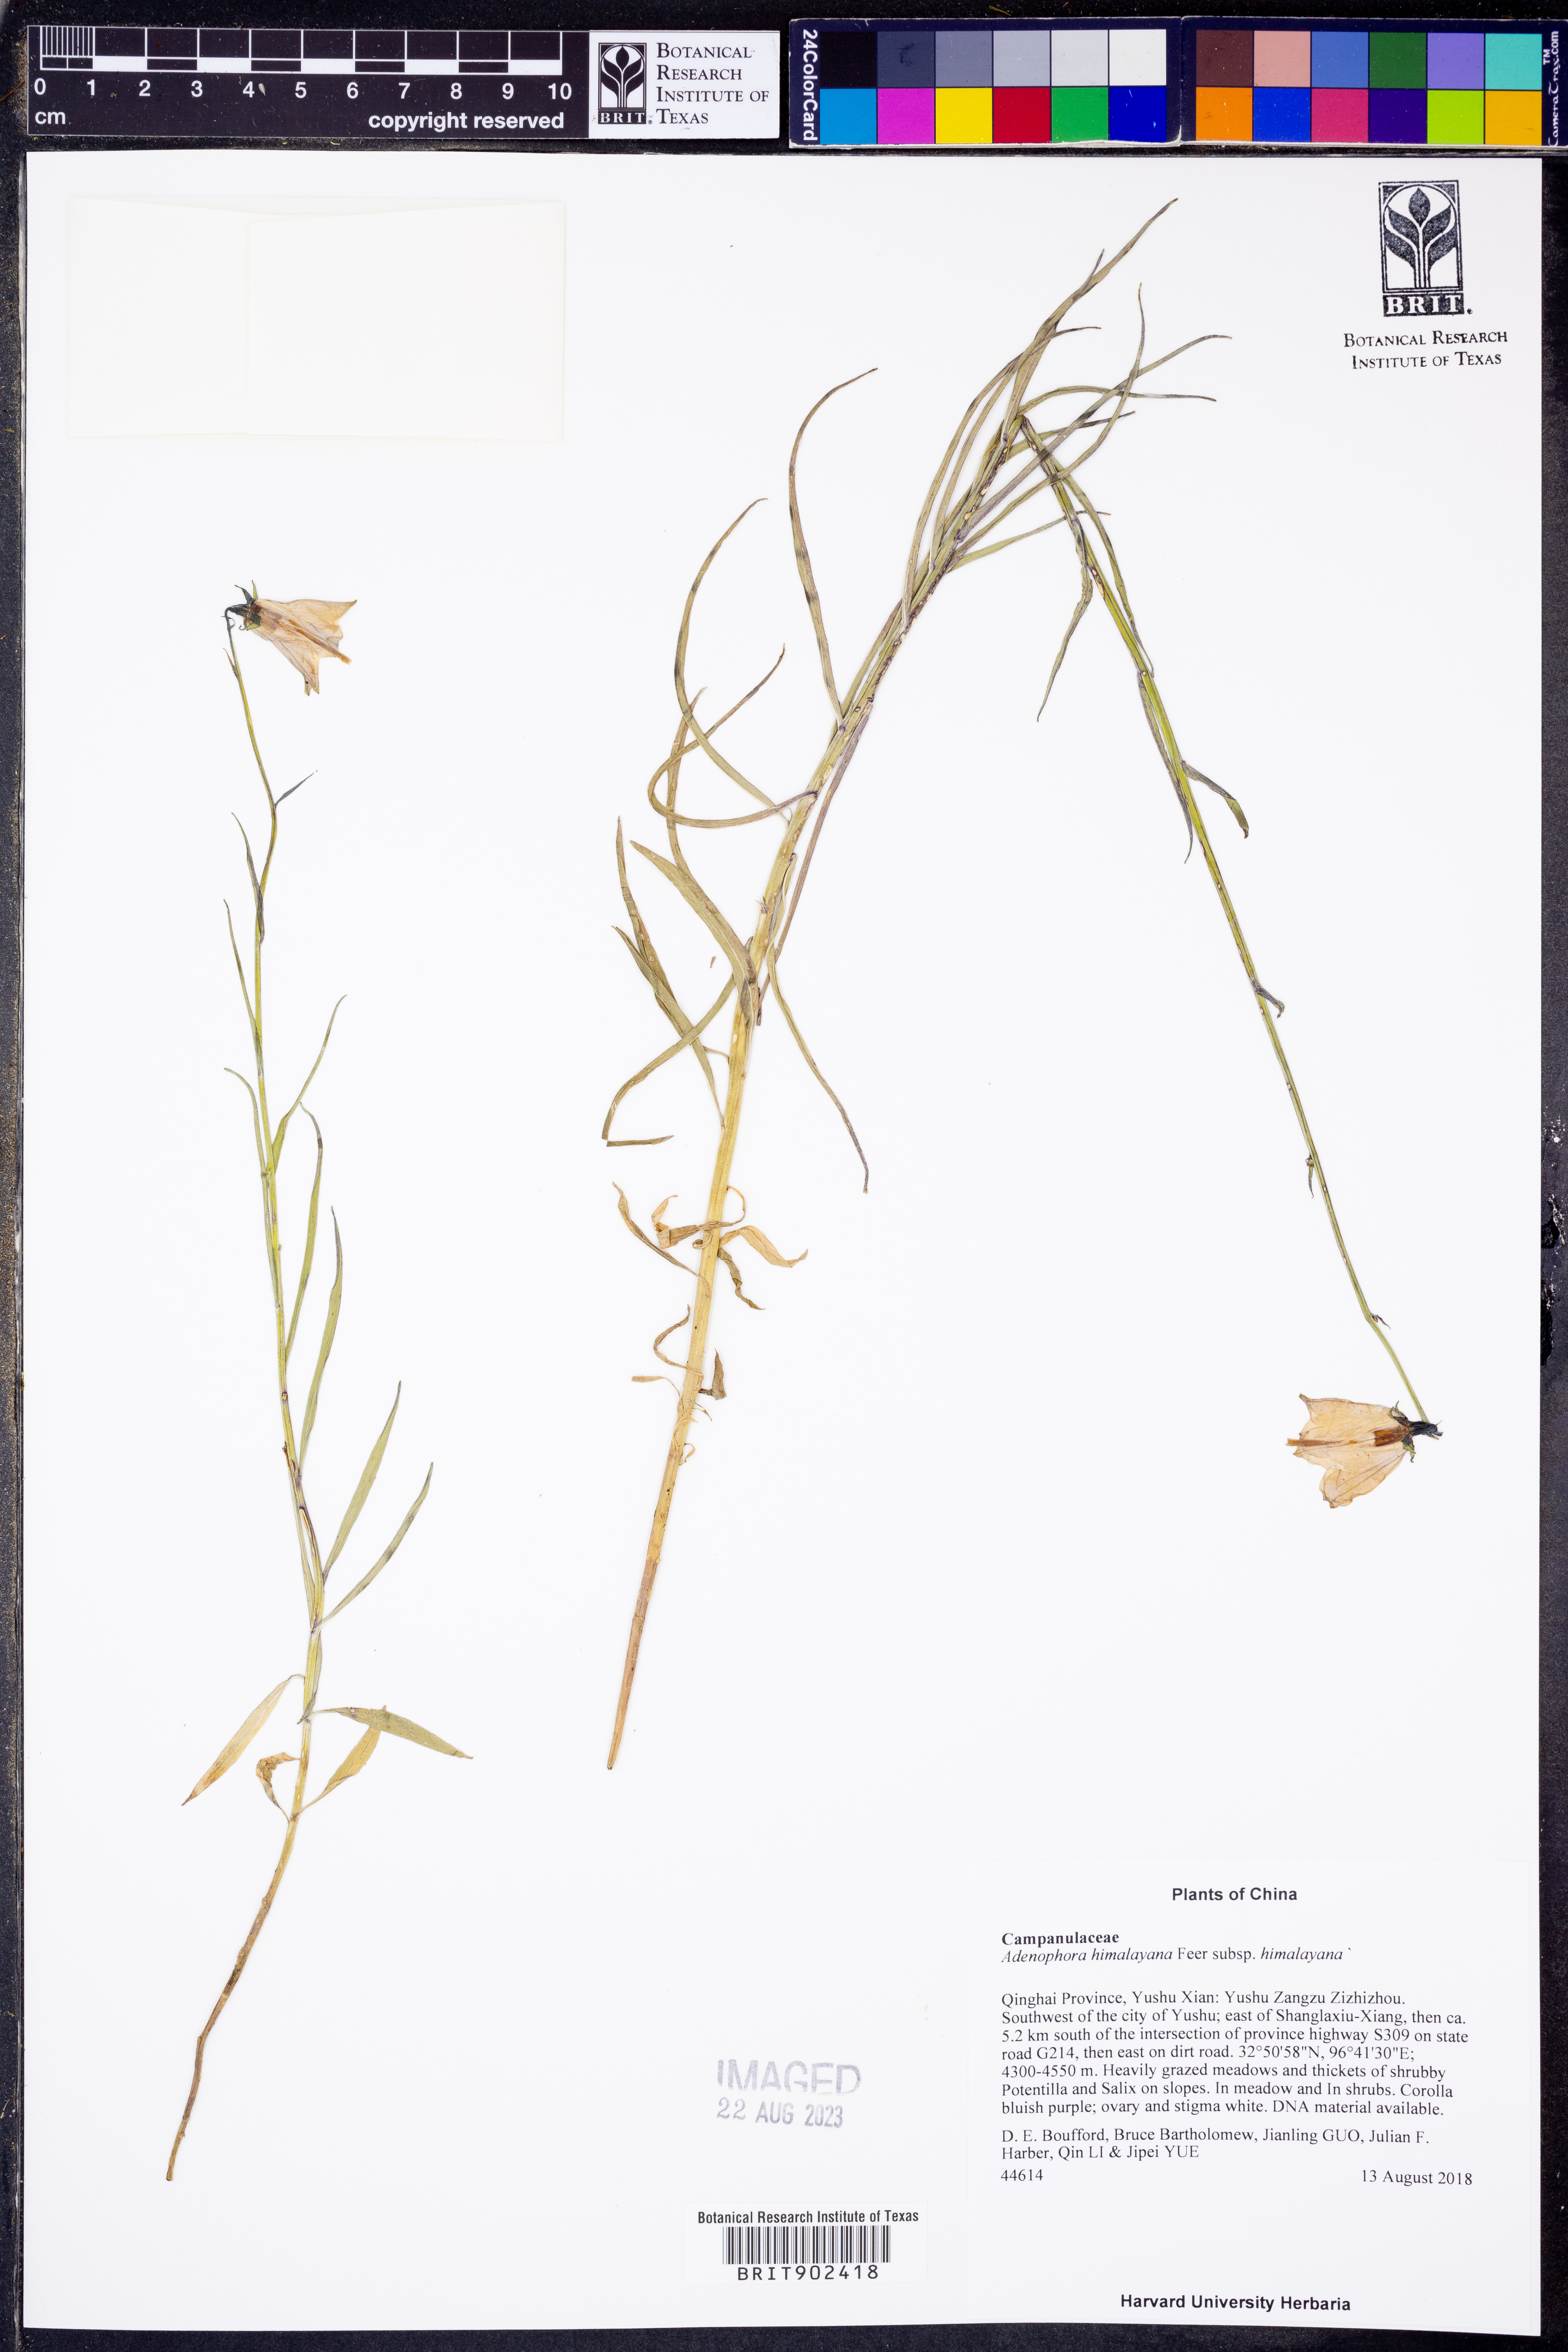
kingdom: Plantae
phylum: Tracheophyta
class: Magnoliopsida
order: Asterales
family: Campanulaceae
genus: Adenophora
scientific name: Adenophora himalayana
